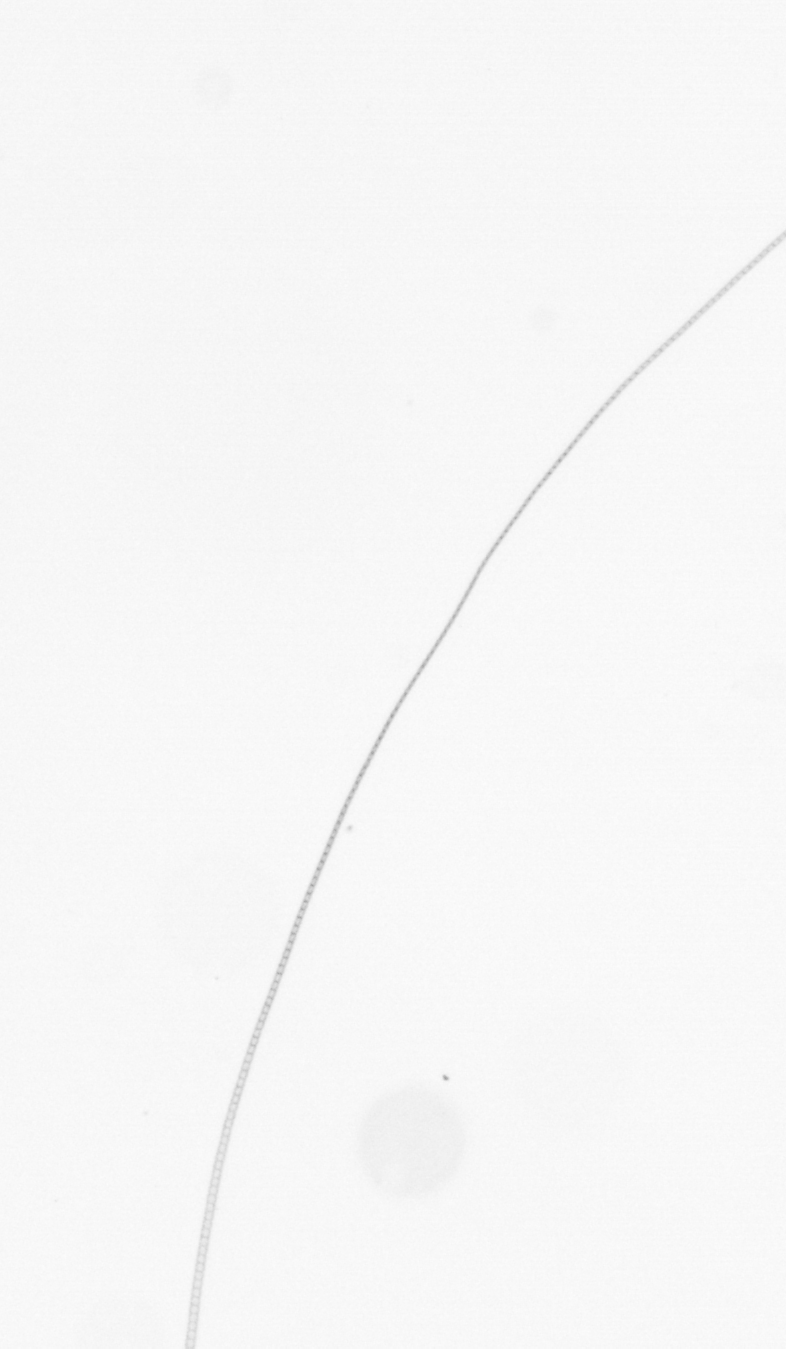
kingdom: Chromista
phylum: Ochrophyta
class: Bacillariophyceae
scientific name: Bacillariophyceae
